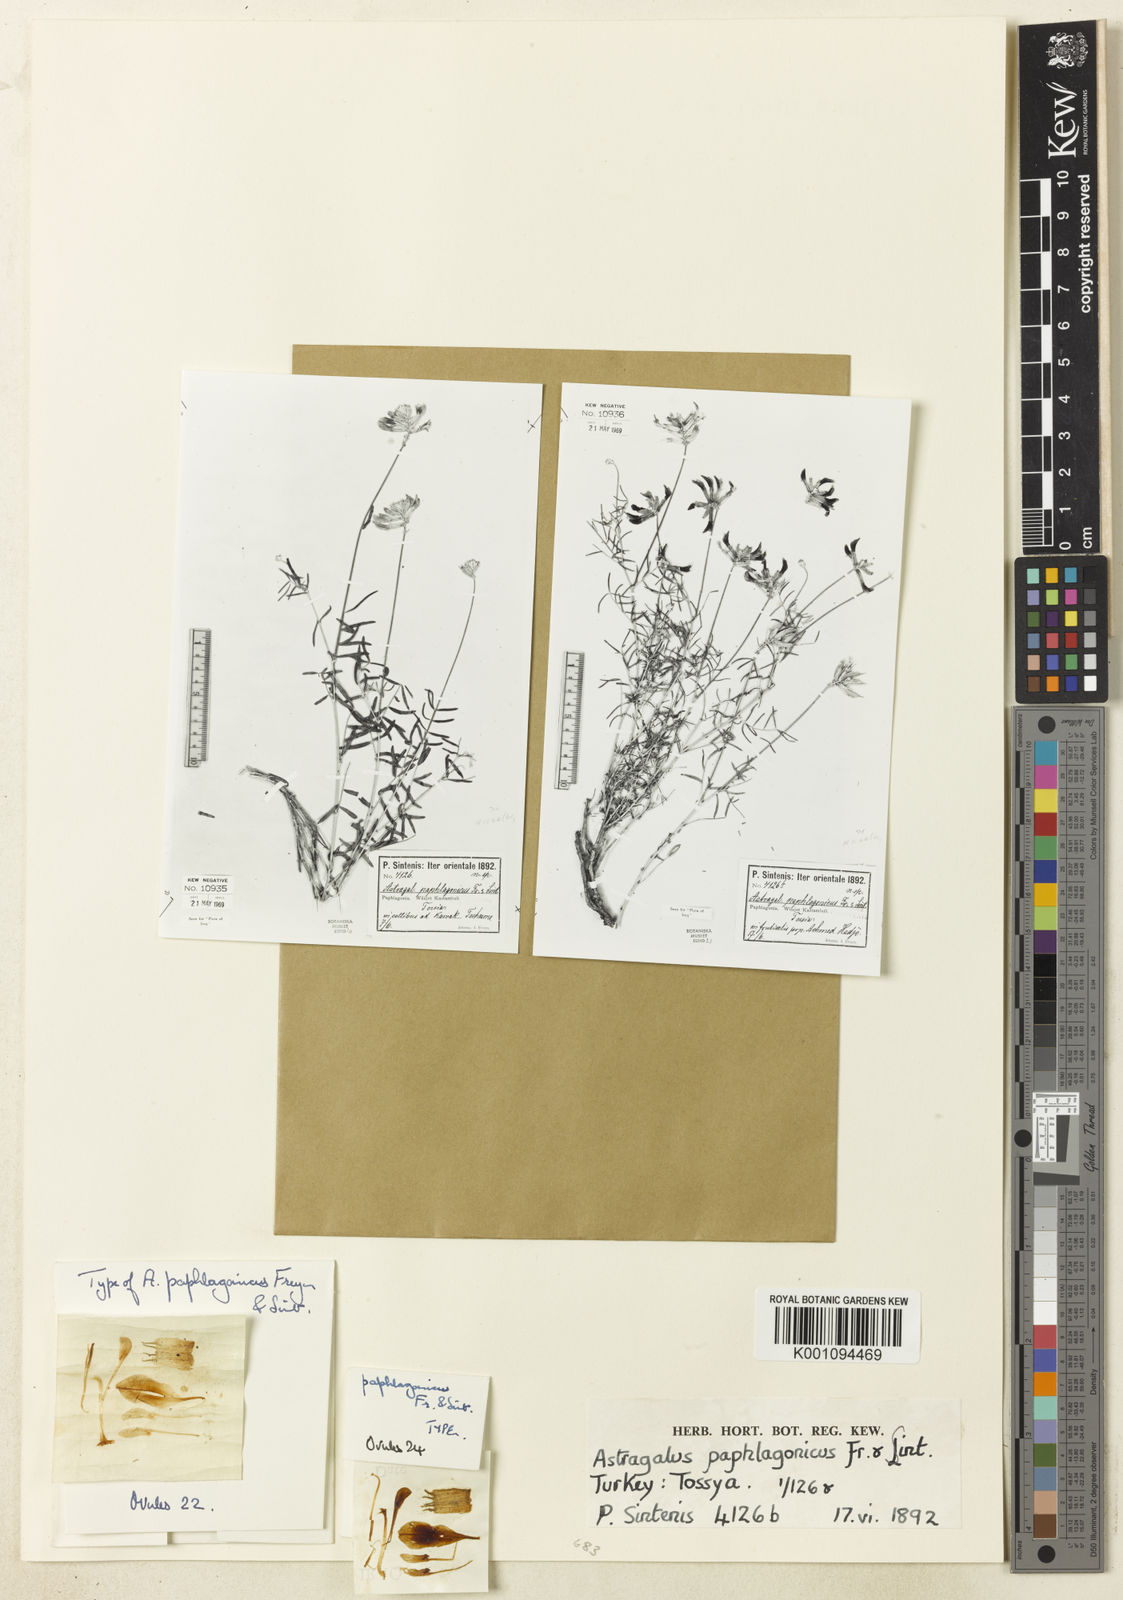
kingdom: Plantae
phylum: Tracheophyta
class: Magnoliopsida
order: Fabales
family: Fabaceae
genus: Astragalus
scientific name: Astragalus
